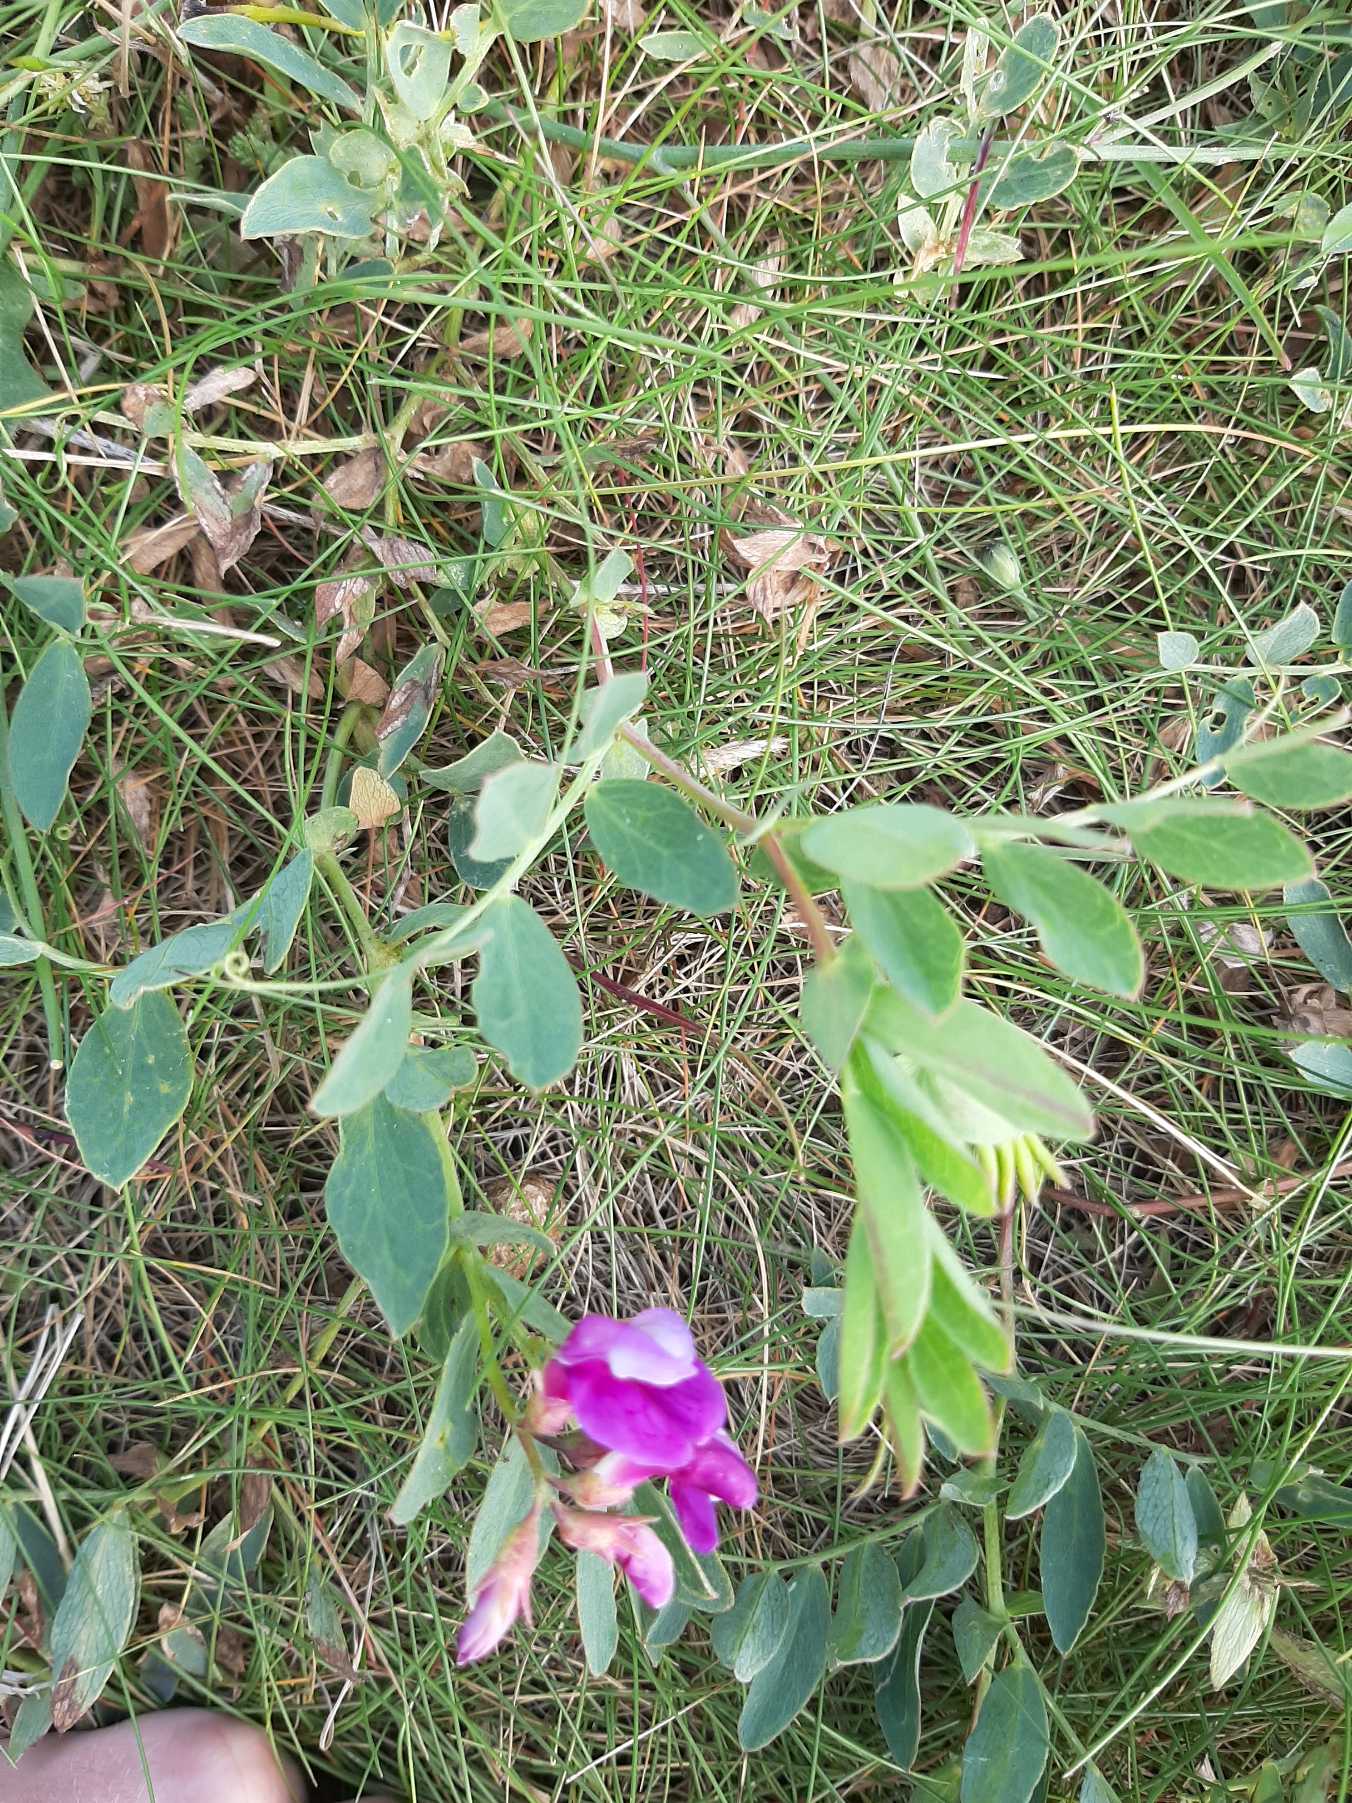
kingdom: Plantae
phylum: Tracheophyta
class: Magnoliopsida
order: Fabales
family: Fabaceae
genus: Lathyrus
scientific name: Lathyrus japonicus
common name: Strand-fladbælg
